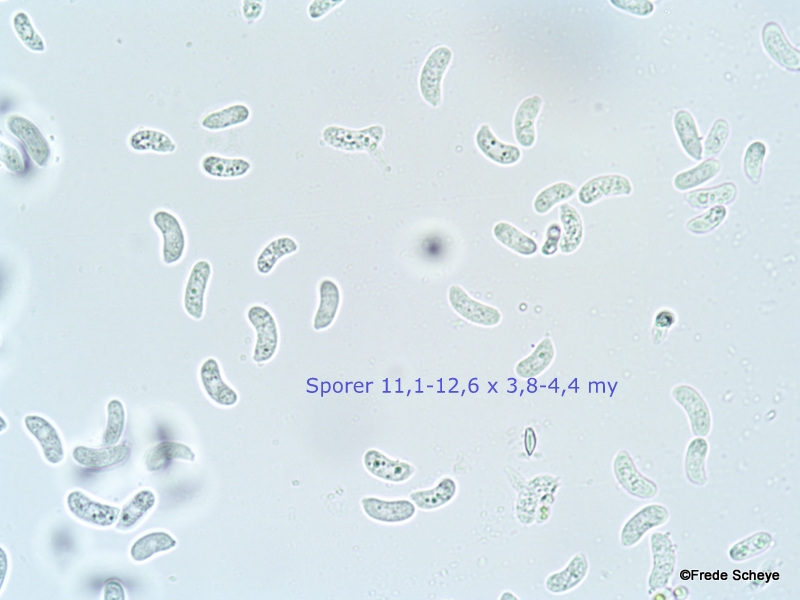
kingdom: Fungi
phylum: Basidiomycota
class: Agaricomycetes
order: Auriculariales
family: Auriculariaceae
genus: Exidia
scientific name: Exidia nigricans
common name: almindelig bævretop
